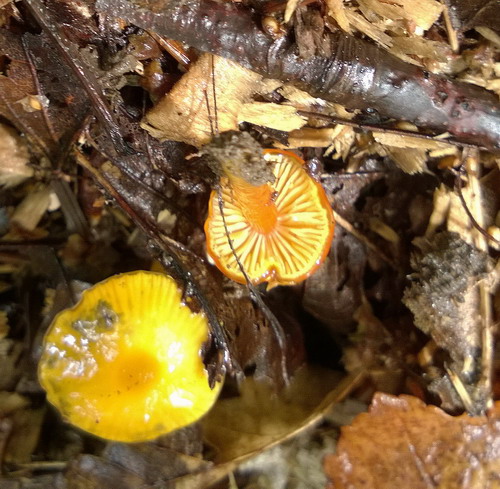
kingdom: Fungi
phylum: Basidiomycota
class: Agaricomycetes
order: Agaricales
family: Hygrophoraceae
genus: Hygrocybe
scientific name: Hygrocybe glutinipes
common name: slimstokket vokshat
